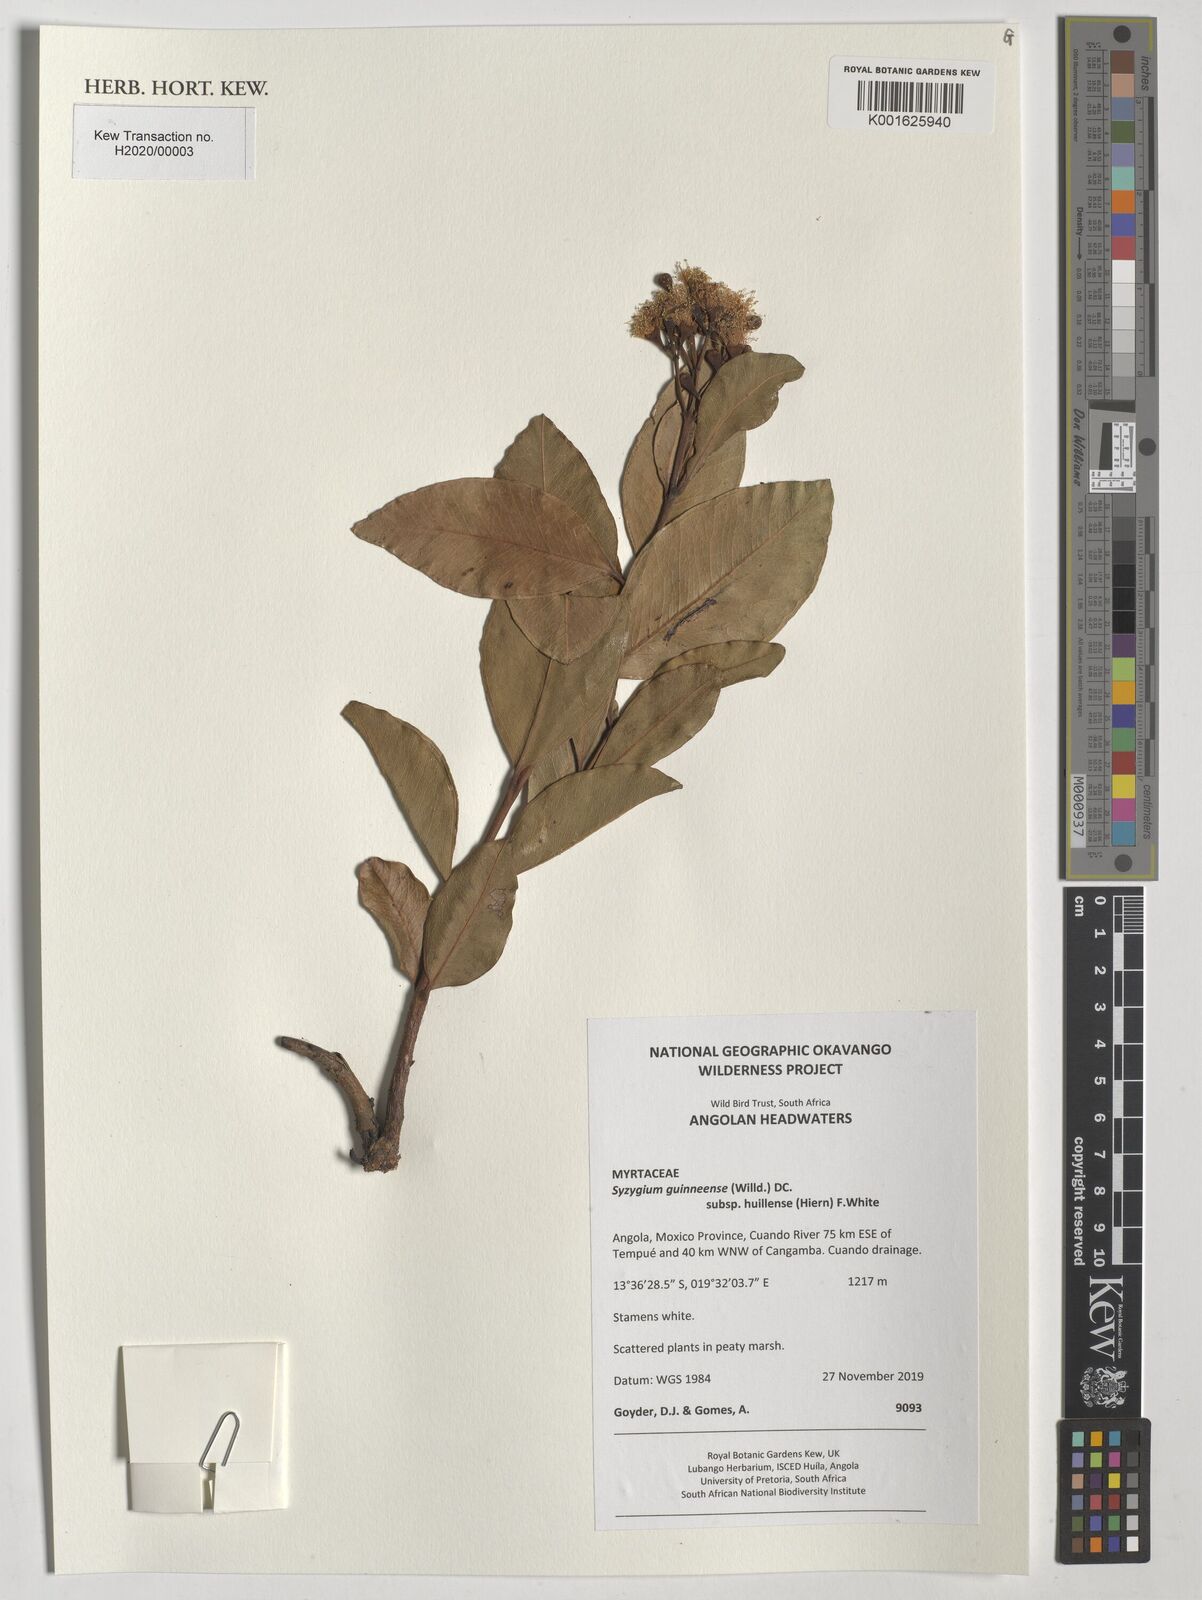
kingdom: Plantae
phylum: Tracheophyta
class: Magnoliopsida
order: Myrtales
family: Myrtaceae
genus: Syzygium
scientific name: Syzygium guineense
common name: Water-pear
